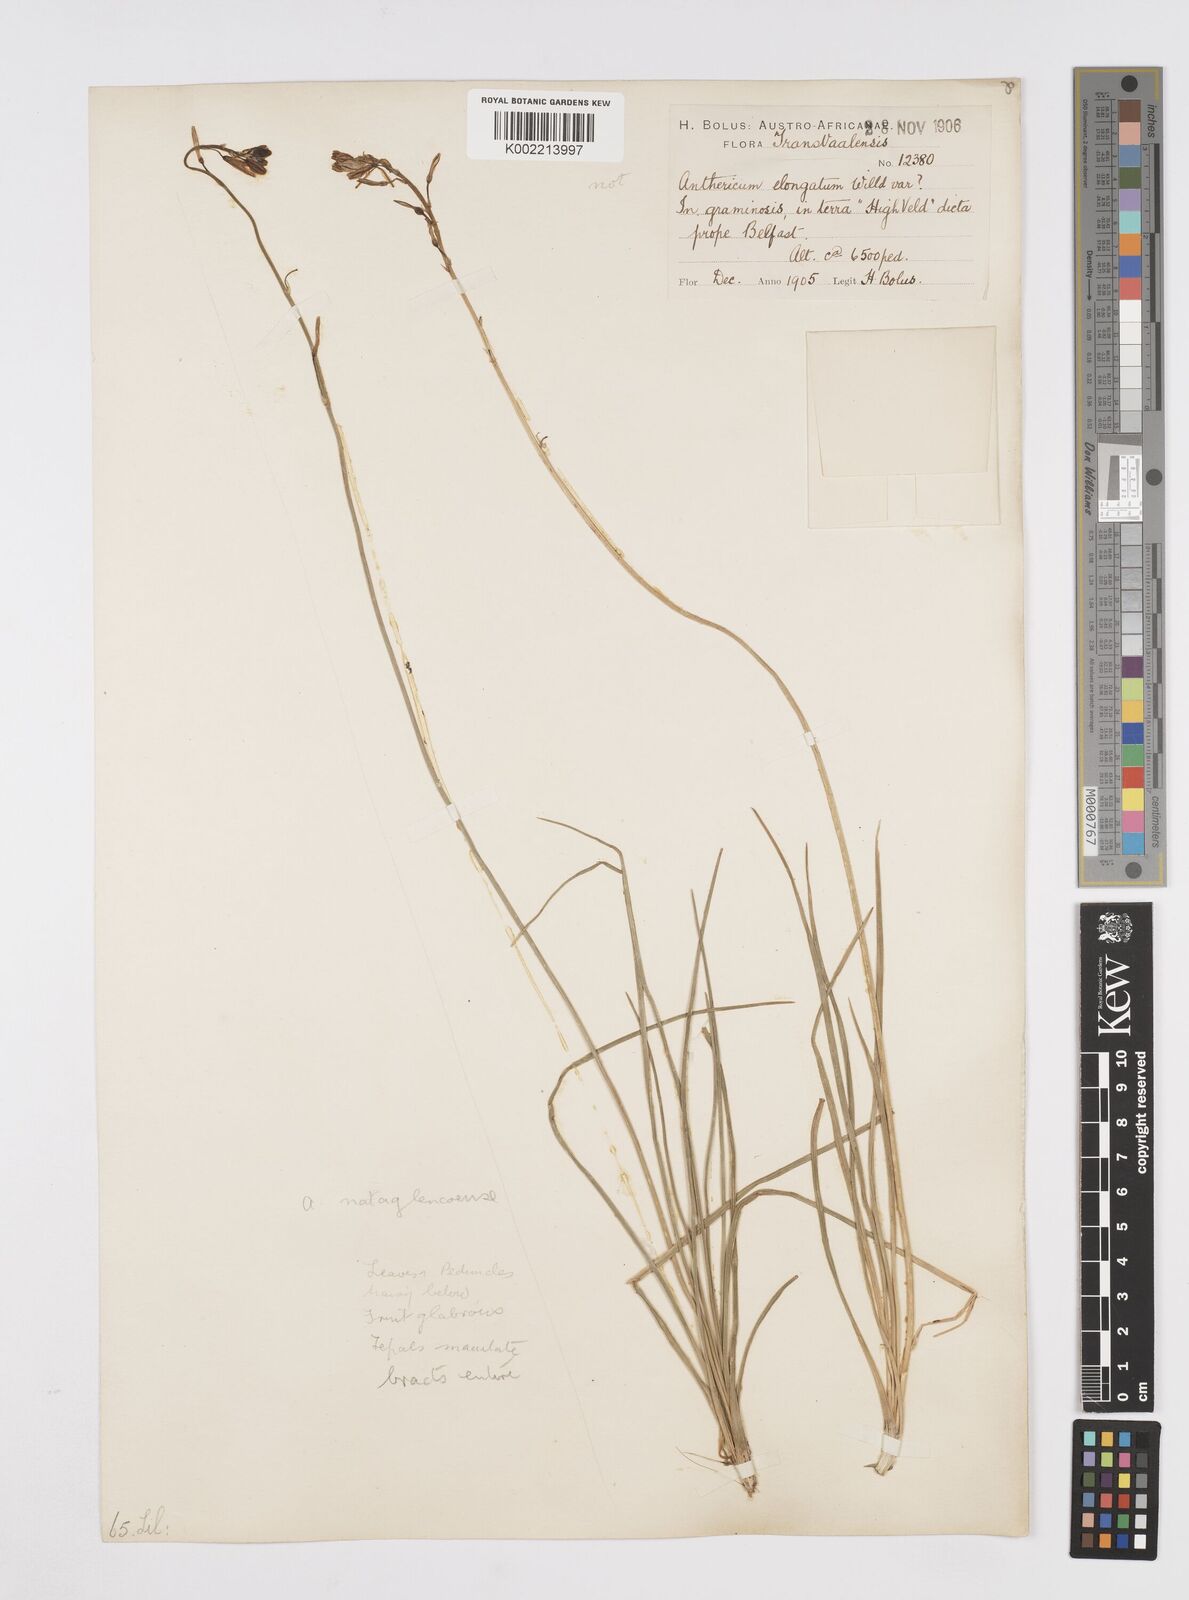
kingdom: Plantae
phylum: Tracheophyta
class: Liliopsida
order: Asparagales
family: Asphodelaceae
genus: Trachyandra
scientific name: Trachyandra asperata
